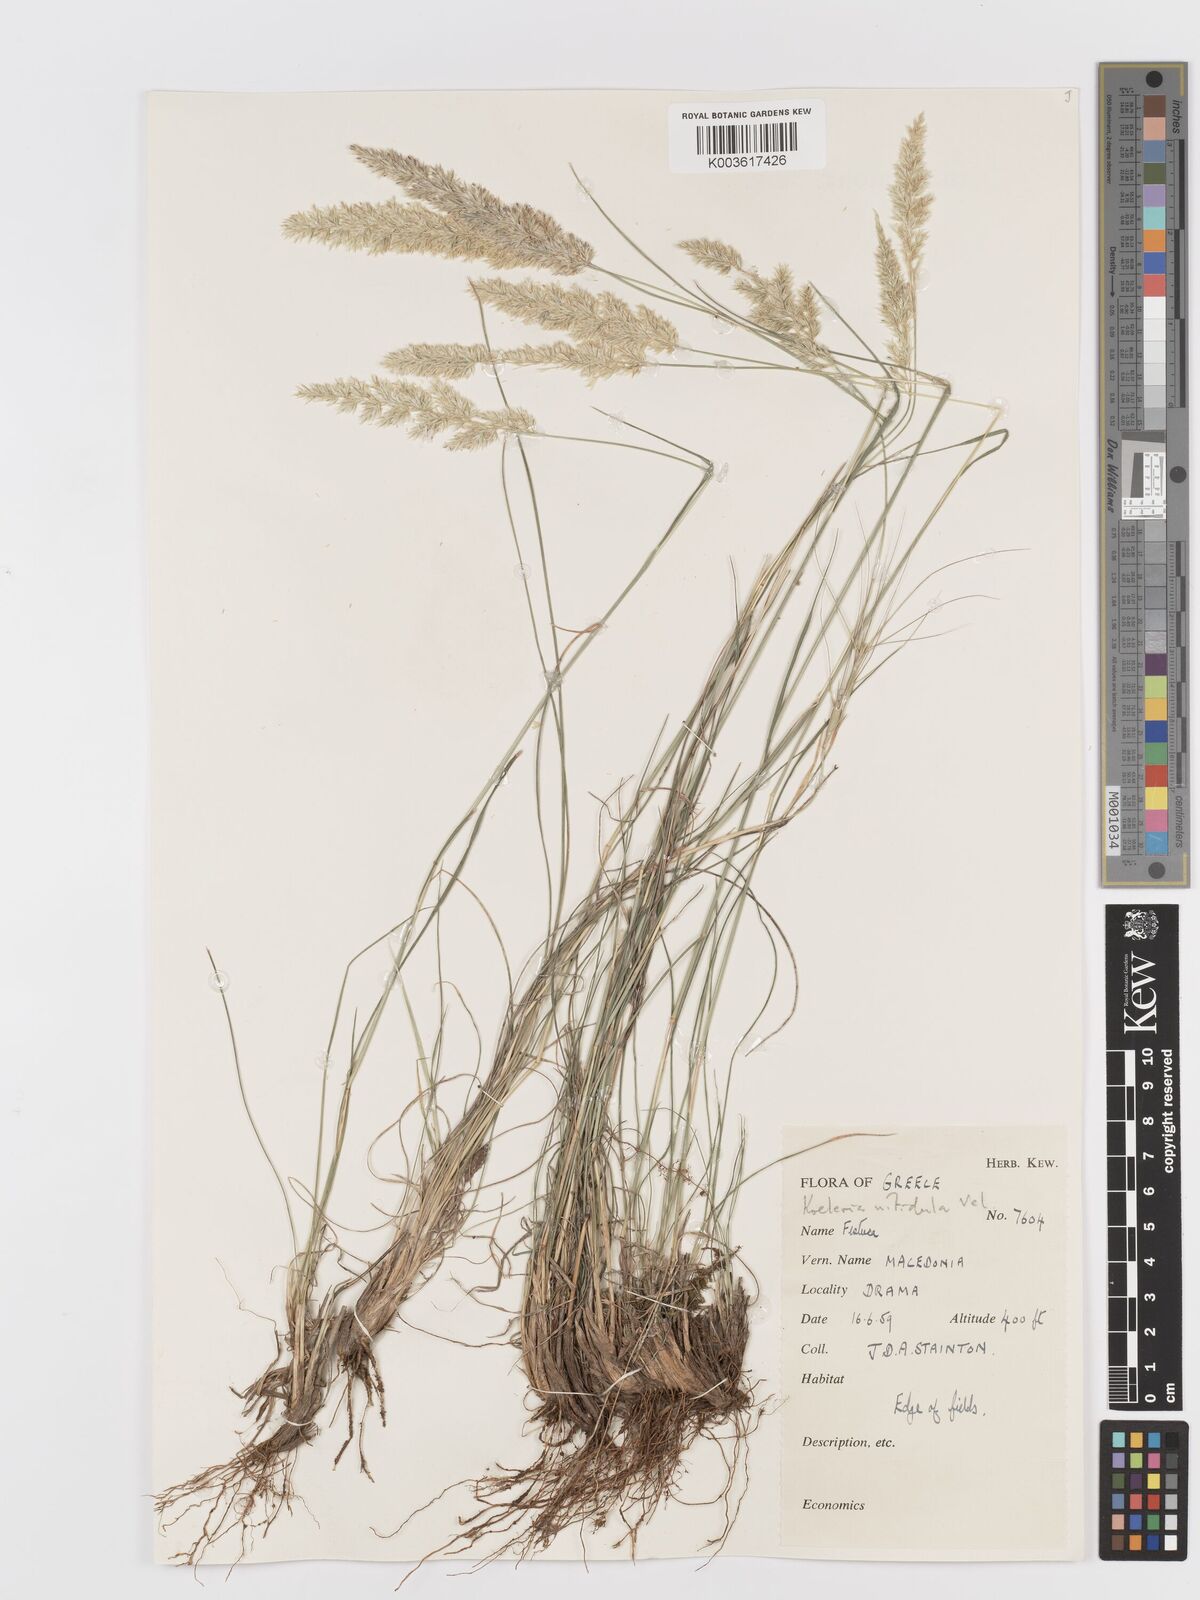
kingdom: Plantae
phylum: Tracheophyta
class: Liliopsida
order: Poales
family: Poaceae
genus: Koeleria
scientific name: Koeleria nitidula
